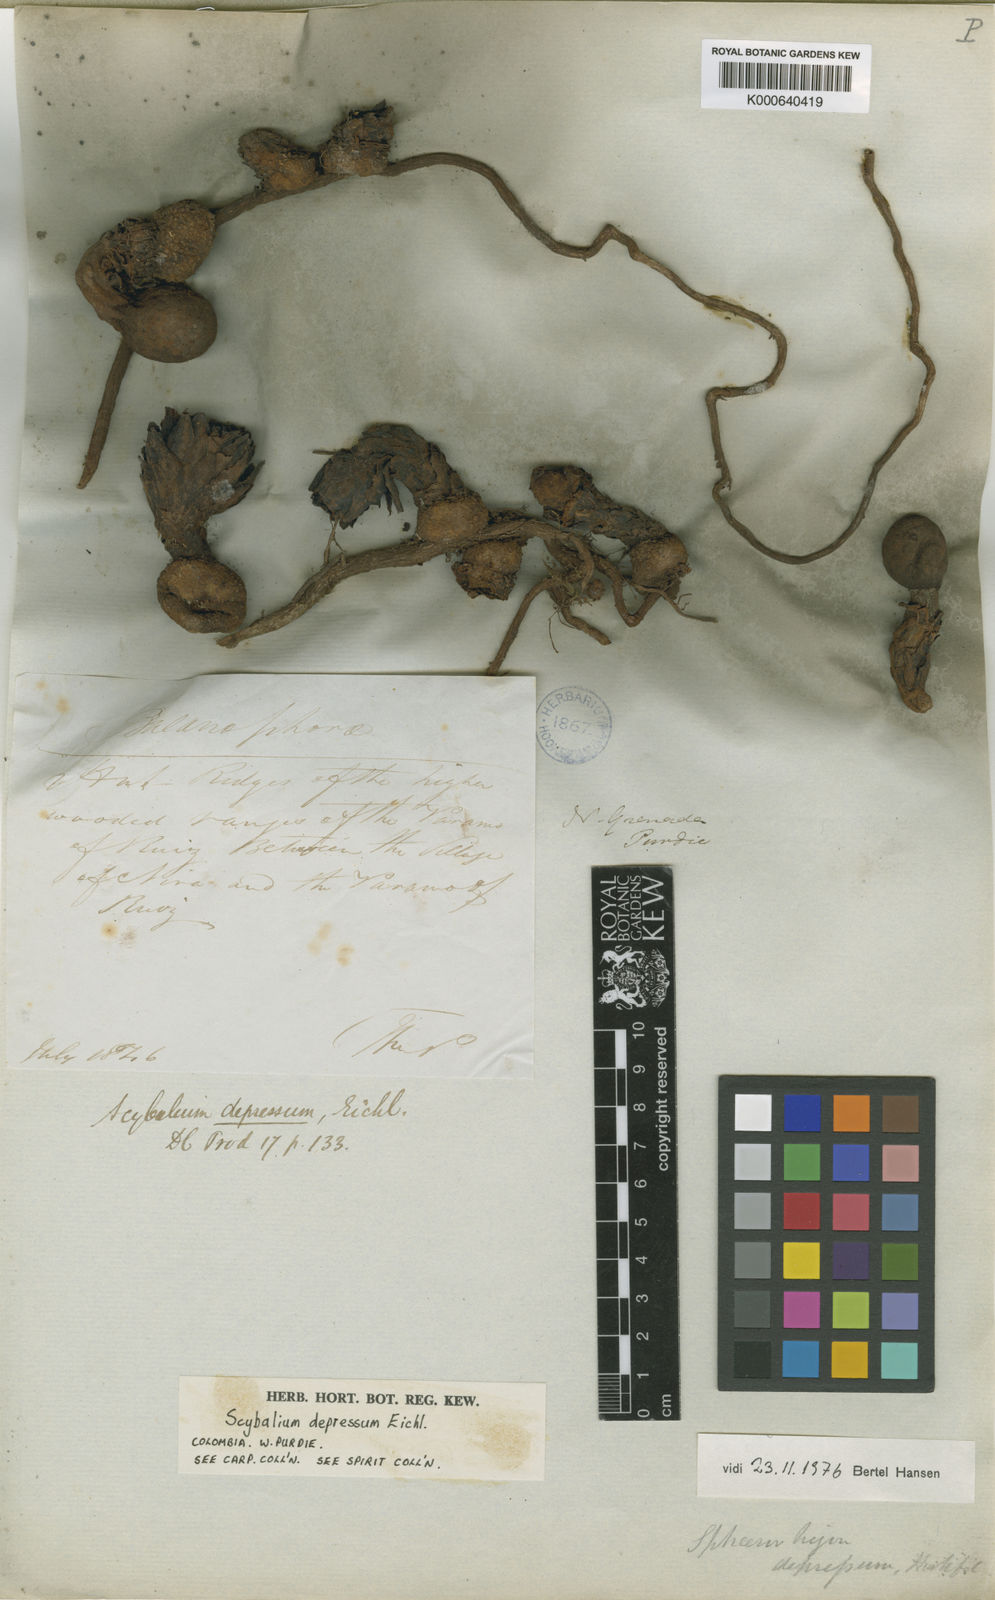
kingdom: Plantae
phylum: Tracheophyta
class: Magnoliopsida
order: Santalales
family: Balanophoraceae
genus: Scybalium
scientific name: Scybalium depressum
